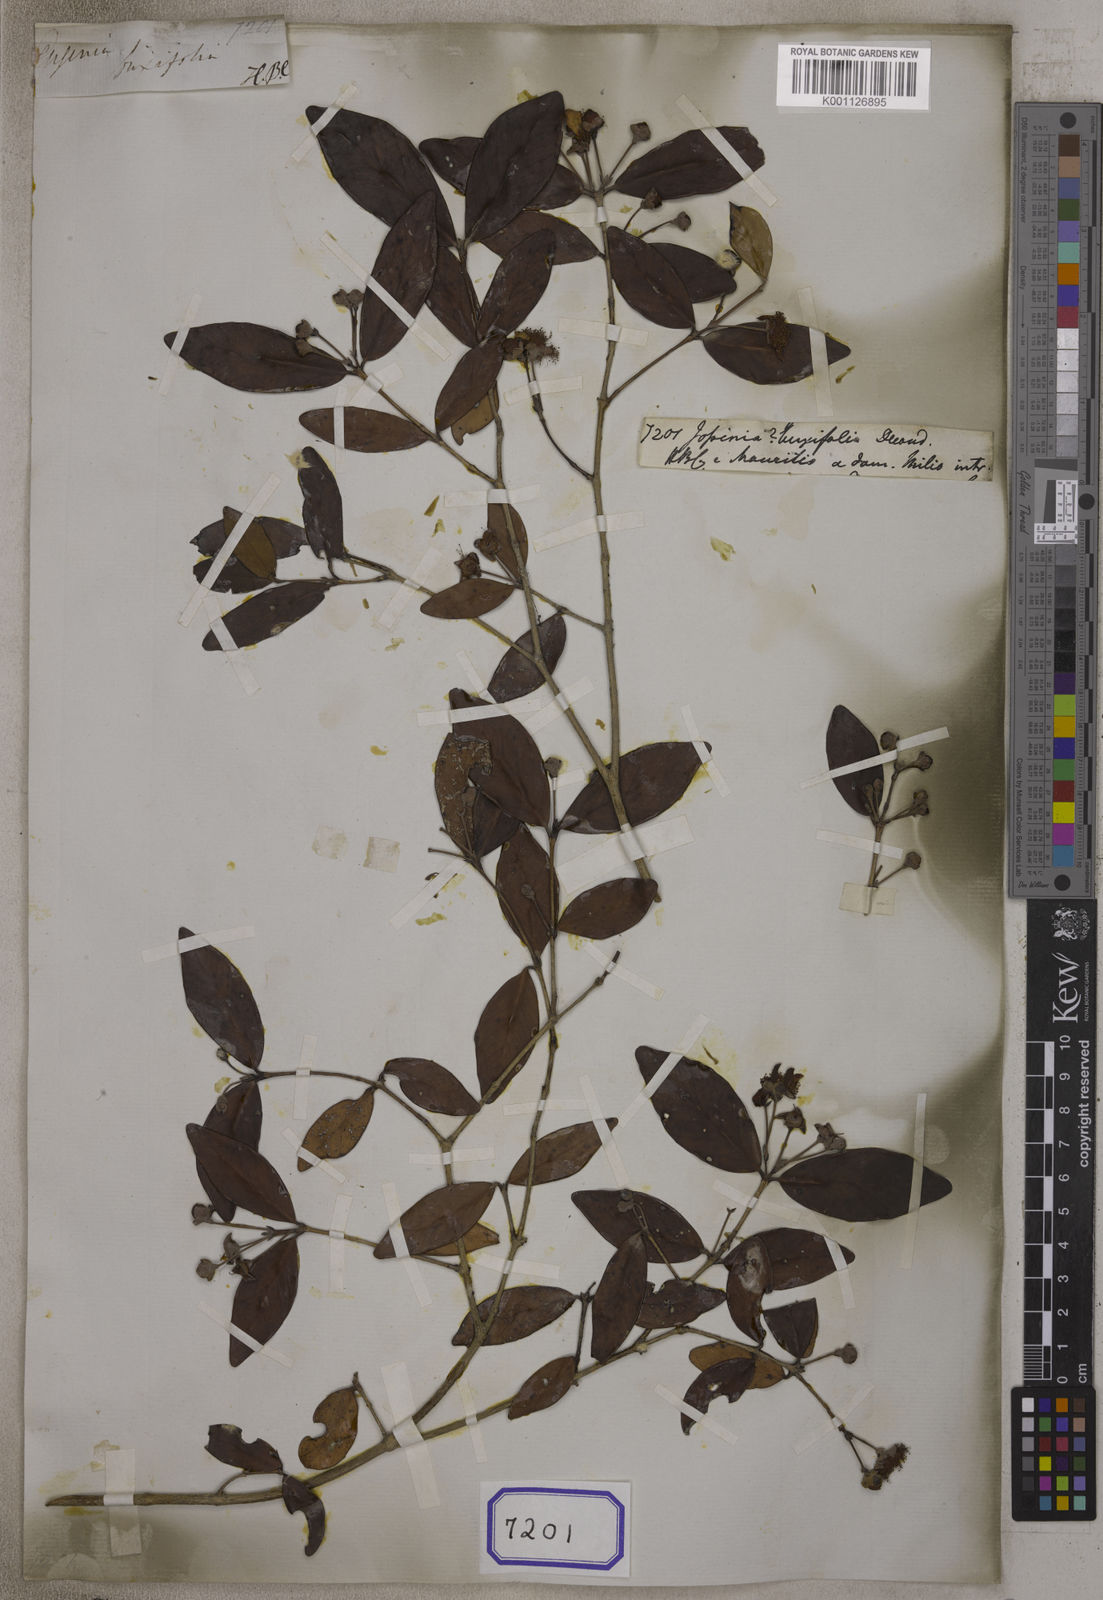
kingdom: Plantae
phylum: Tracheophyta
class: Magnoliopsida
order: Myrtales
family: Myrtaceae
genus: Eugenia
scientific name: Eugenia buxifolia
